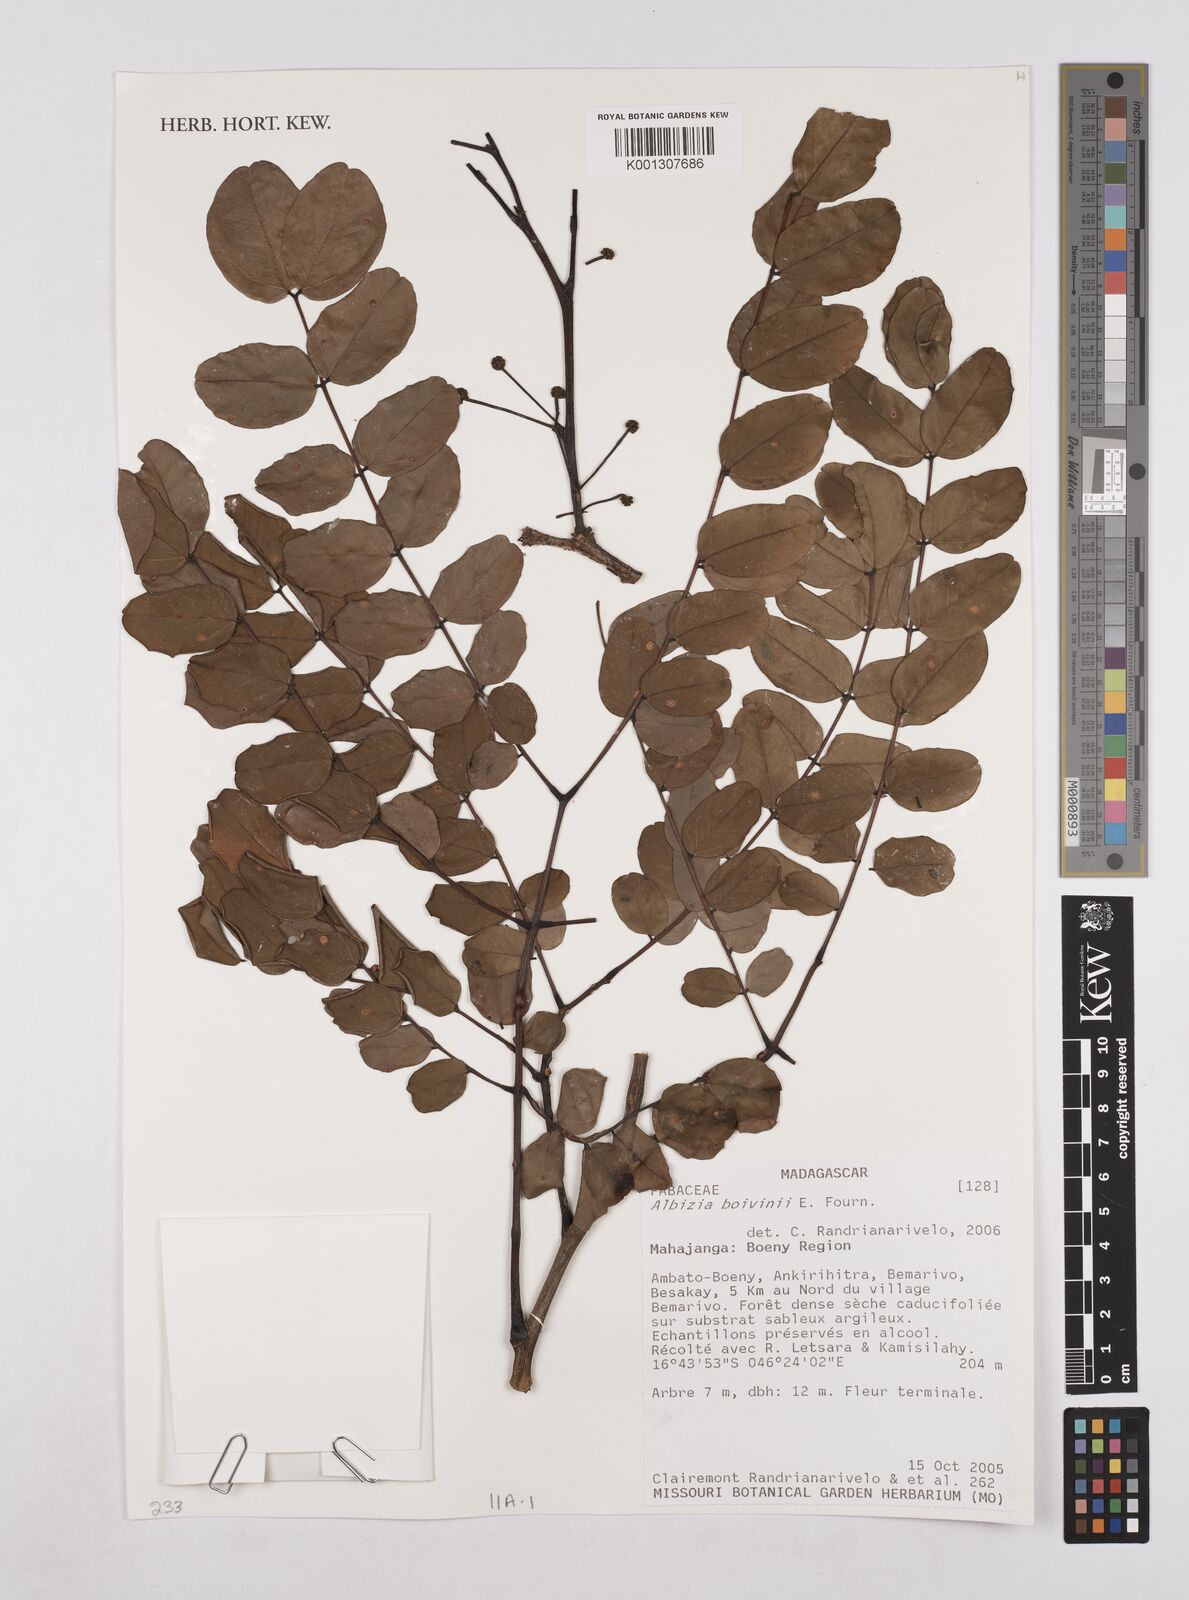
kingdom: Plantae
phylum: Tracheophyta
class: Magnoliopsida
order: Fabales
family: Fabaceae
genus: Albizia
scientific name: Albizia boivinii
